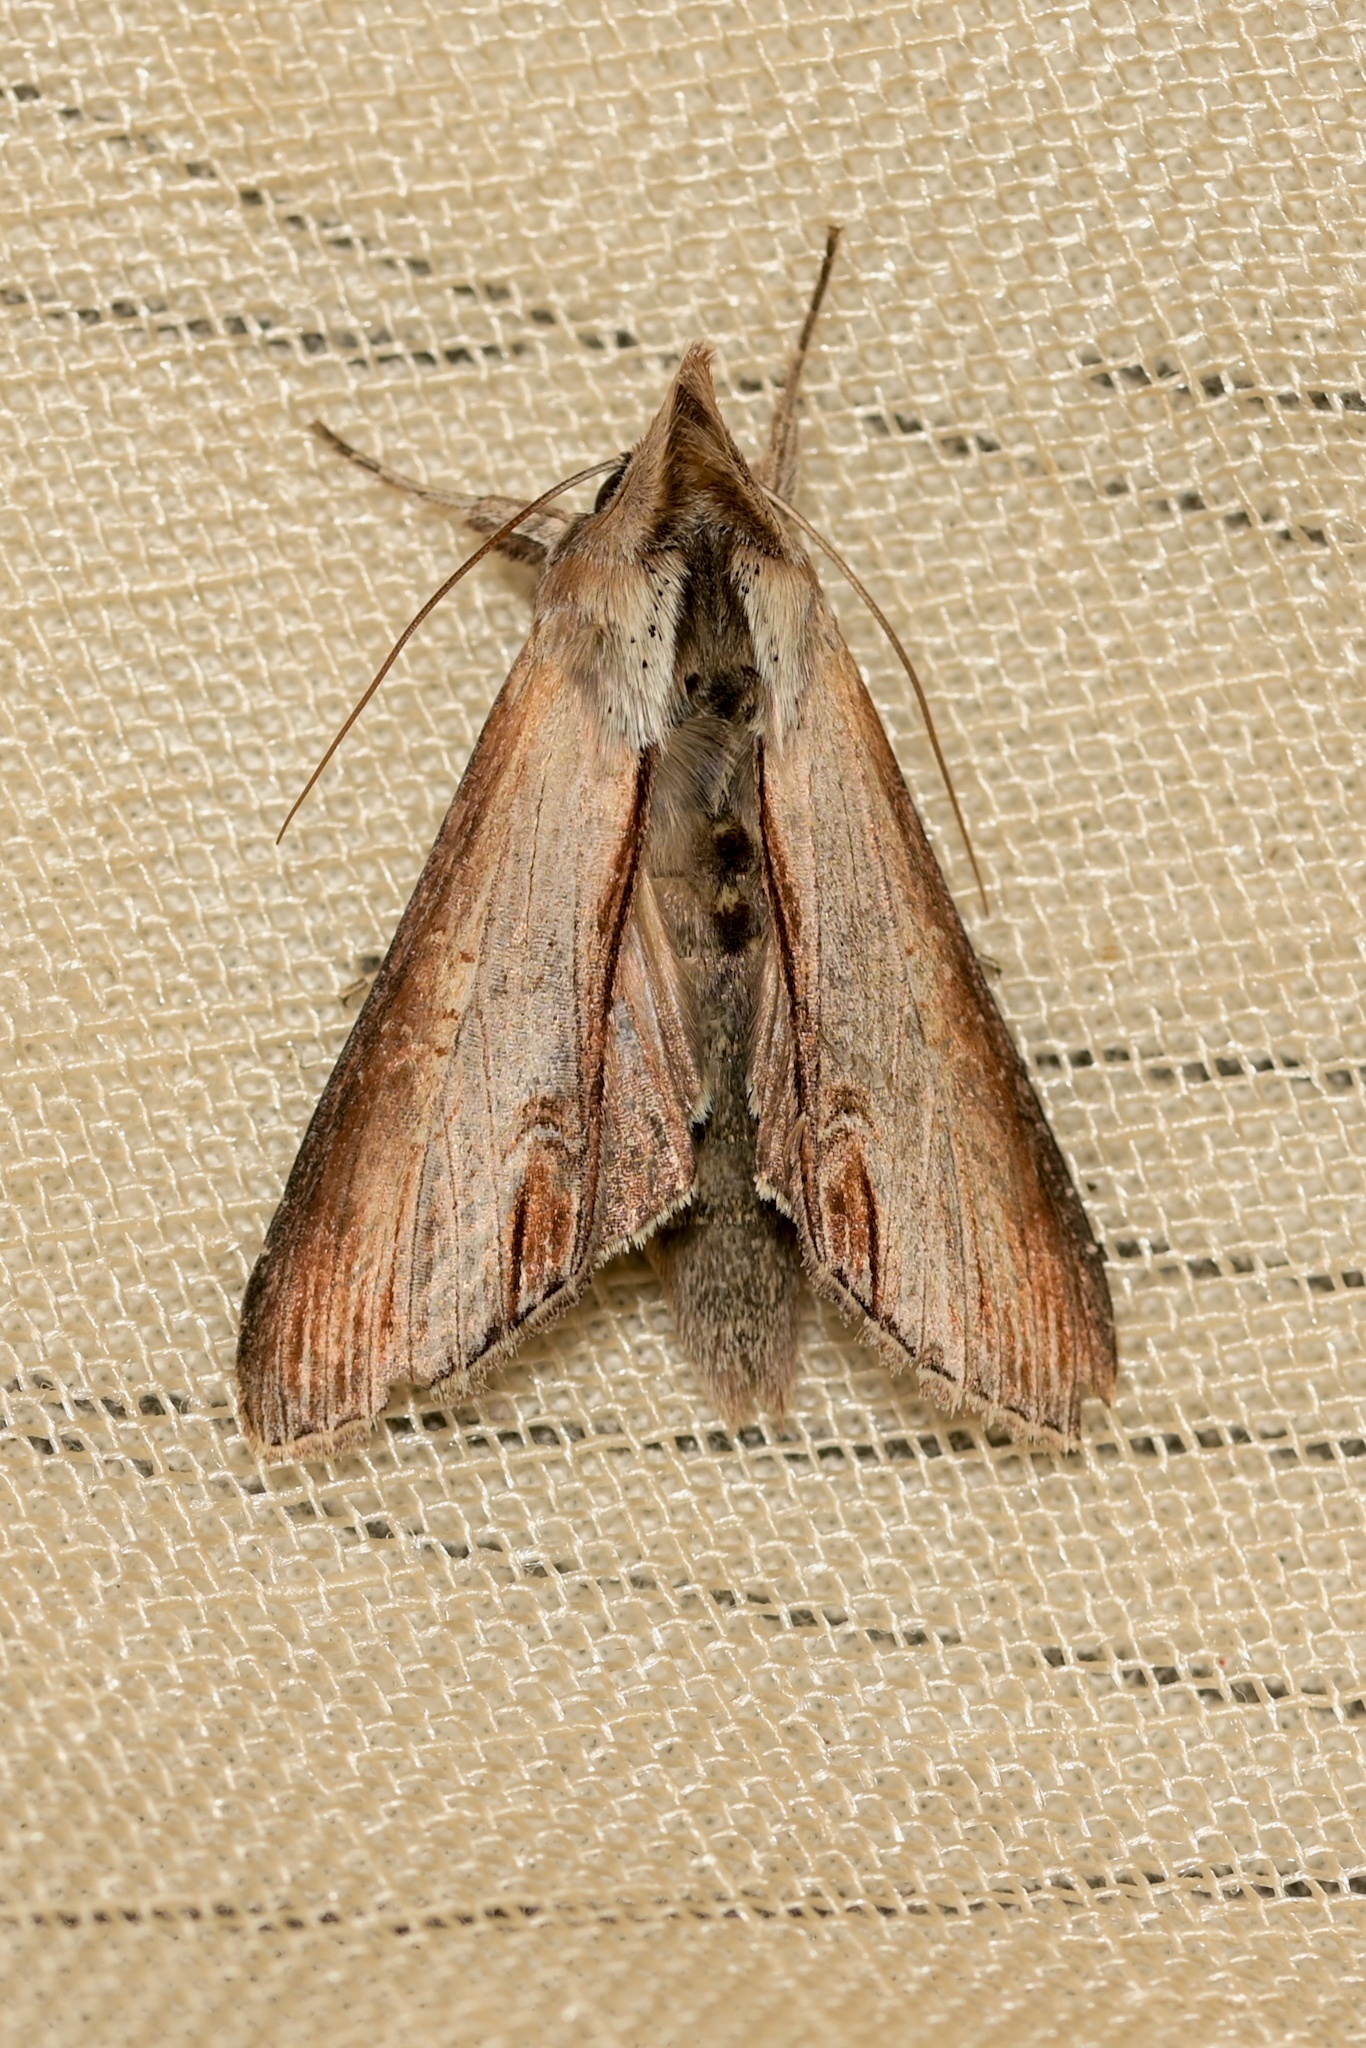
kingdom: Animalia
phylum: Arthropoda
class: Insecta
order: Lepidoptera
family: Noctuidae
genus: Cucullia
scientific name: Cucullia asteris
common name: Star-wort
